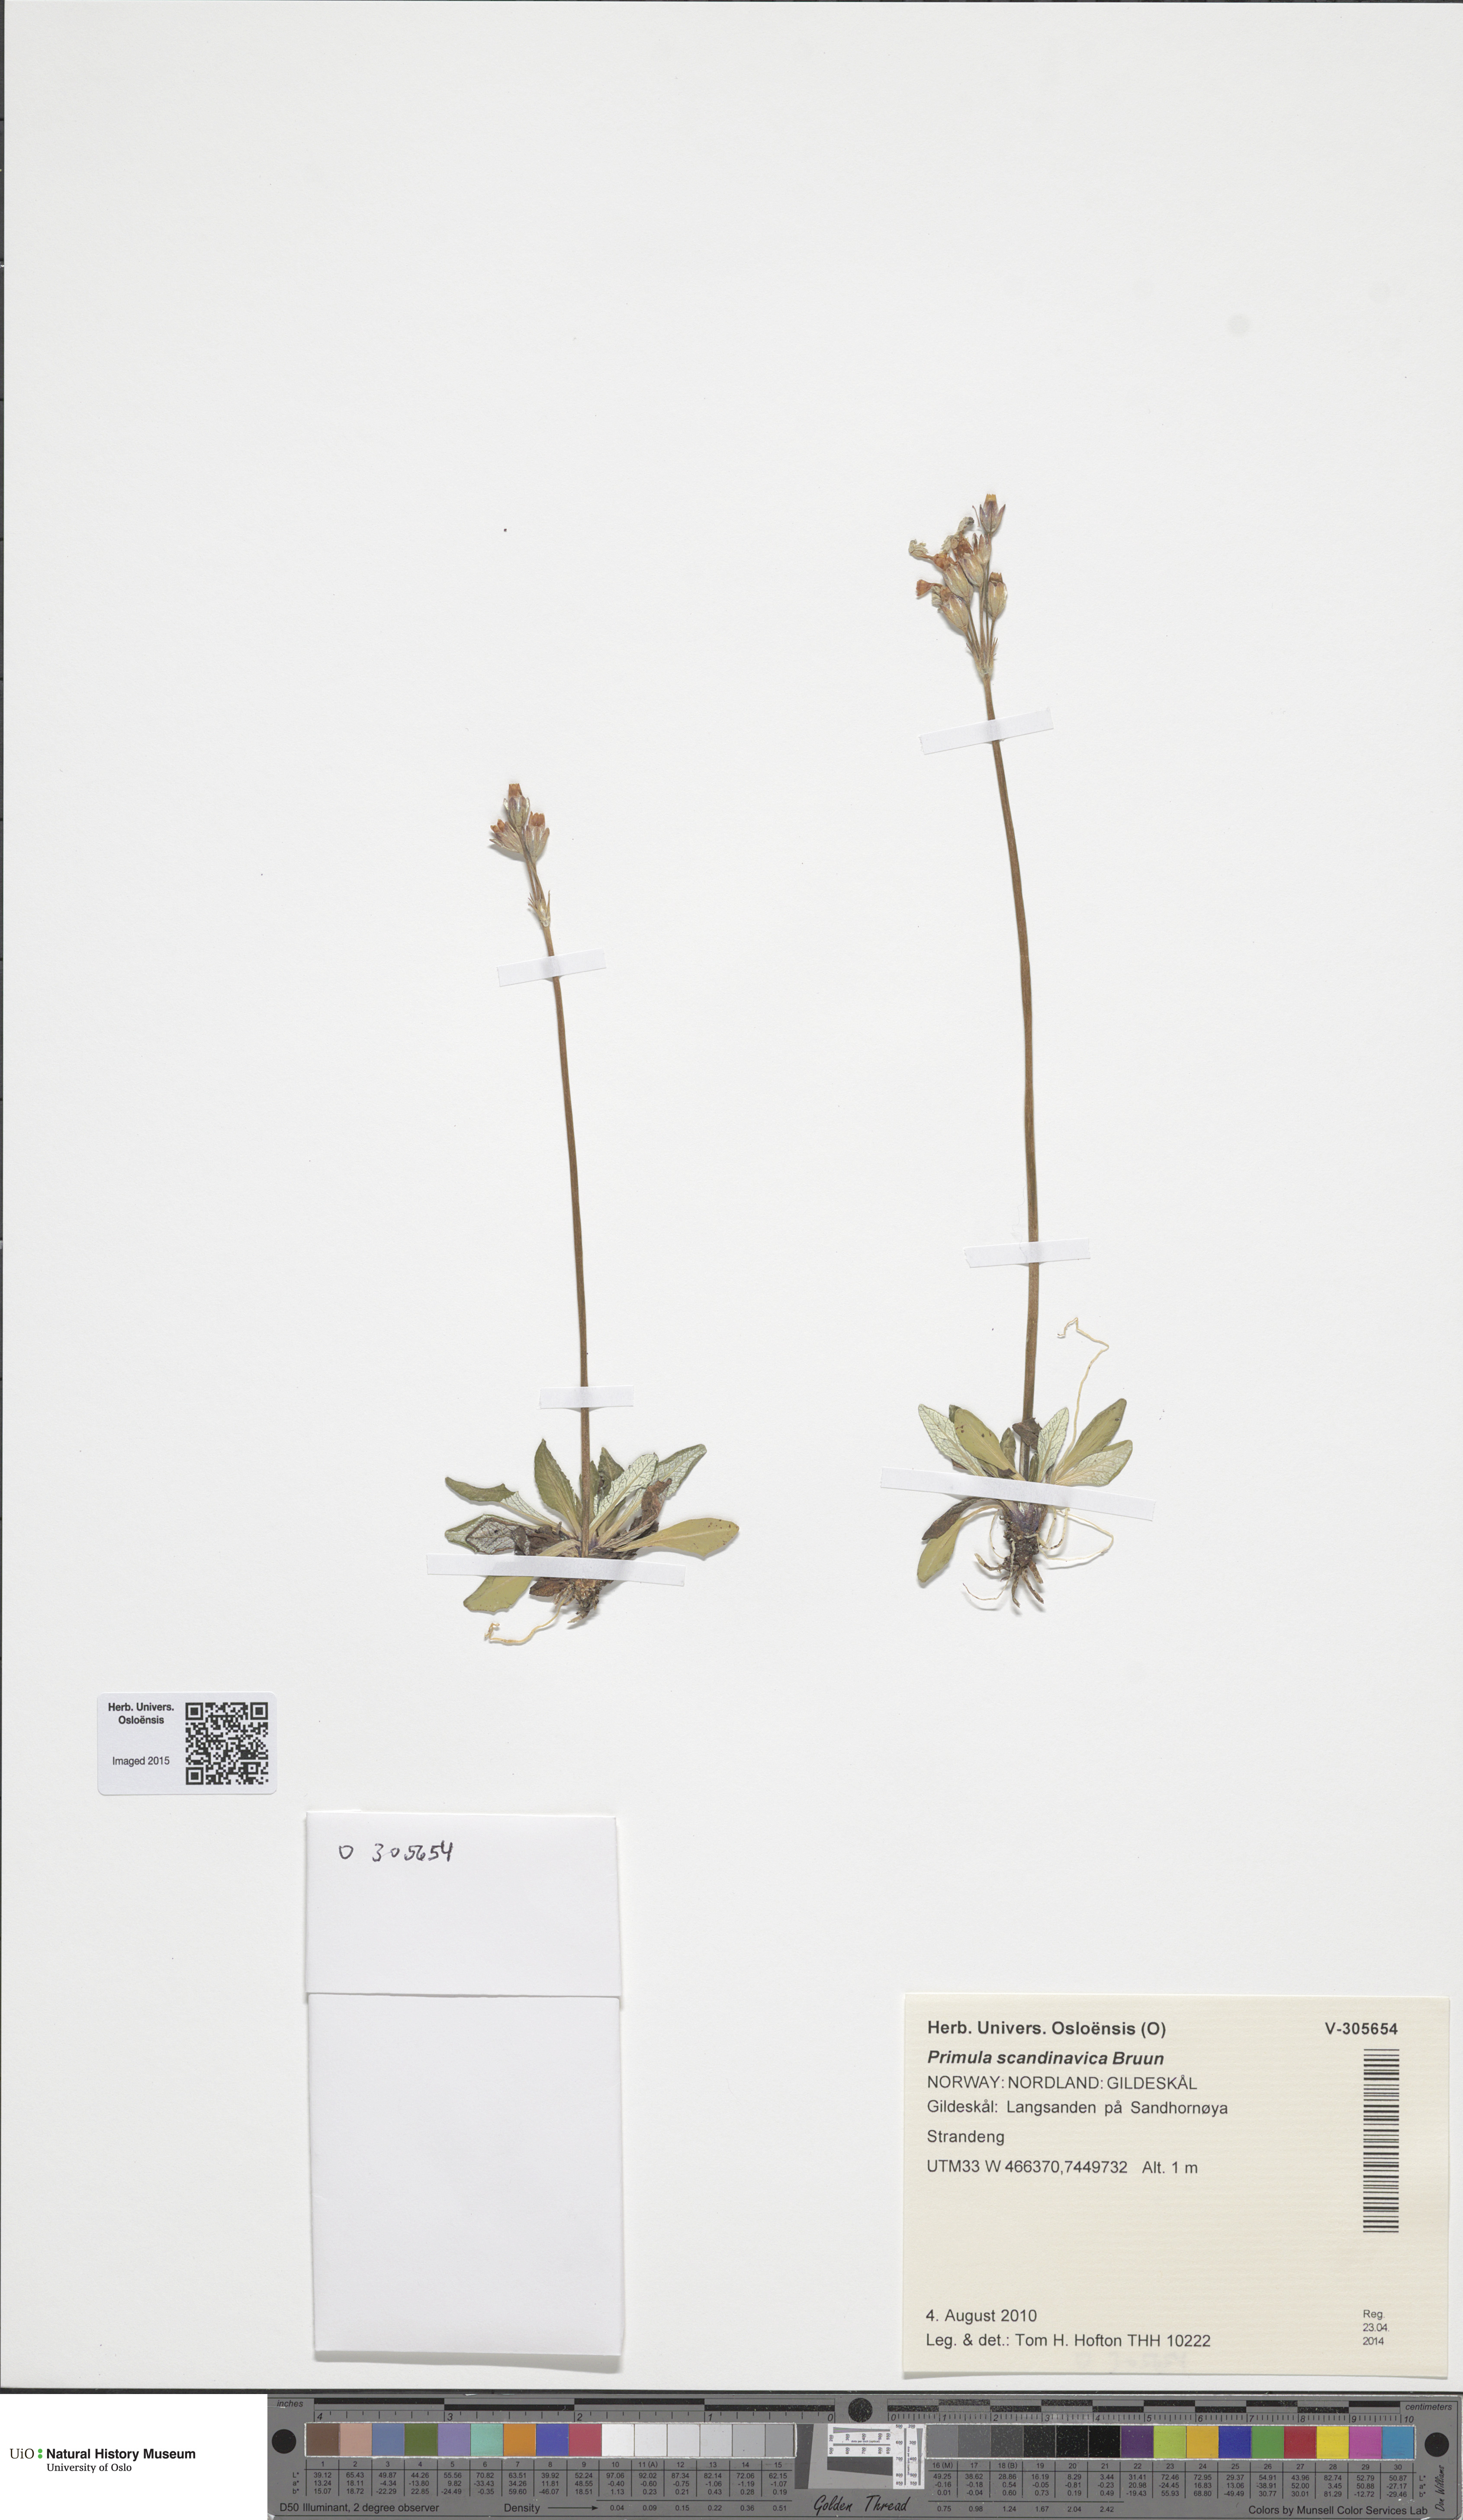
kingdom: Plantae
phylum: Tracheophyta
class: Magnoliopsida
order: Ericales
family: Primulaceae
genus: Primula
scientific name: Primula scandinavica
